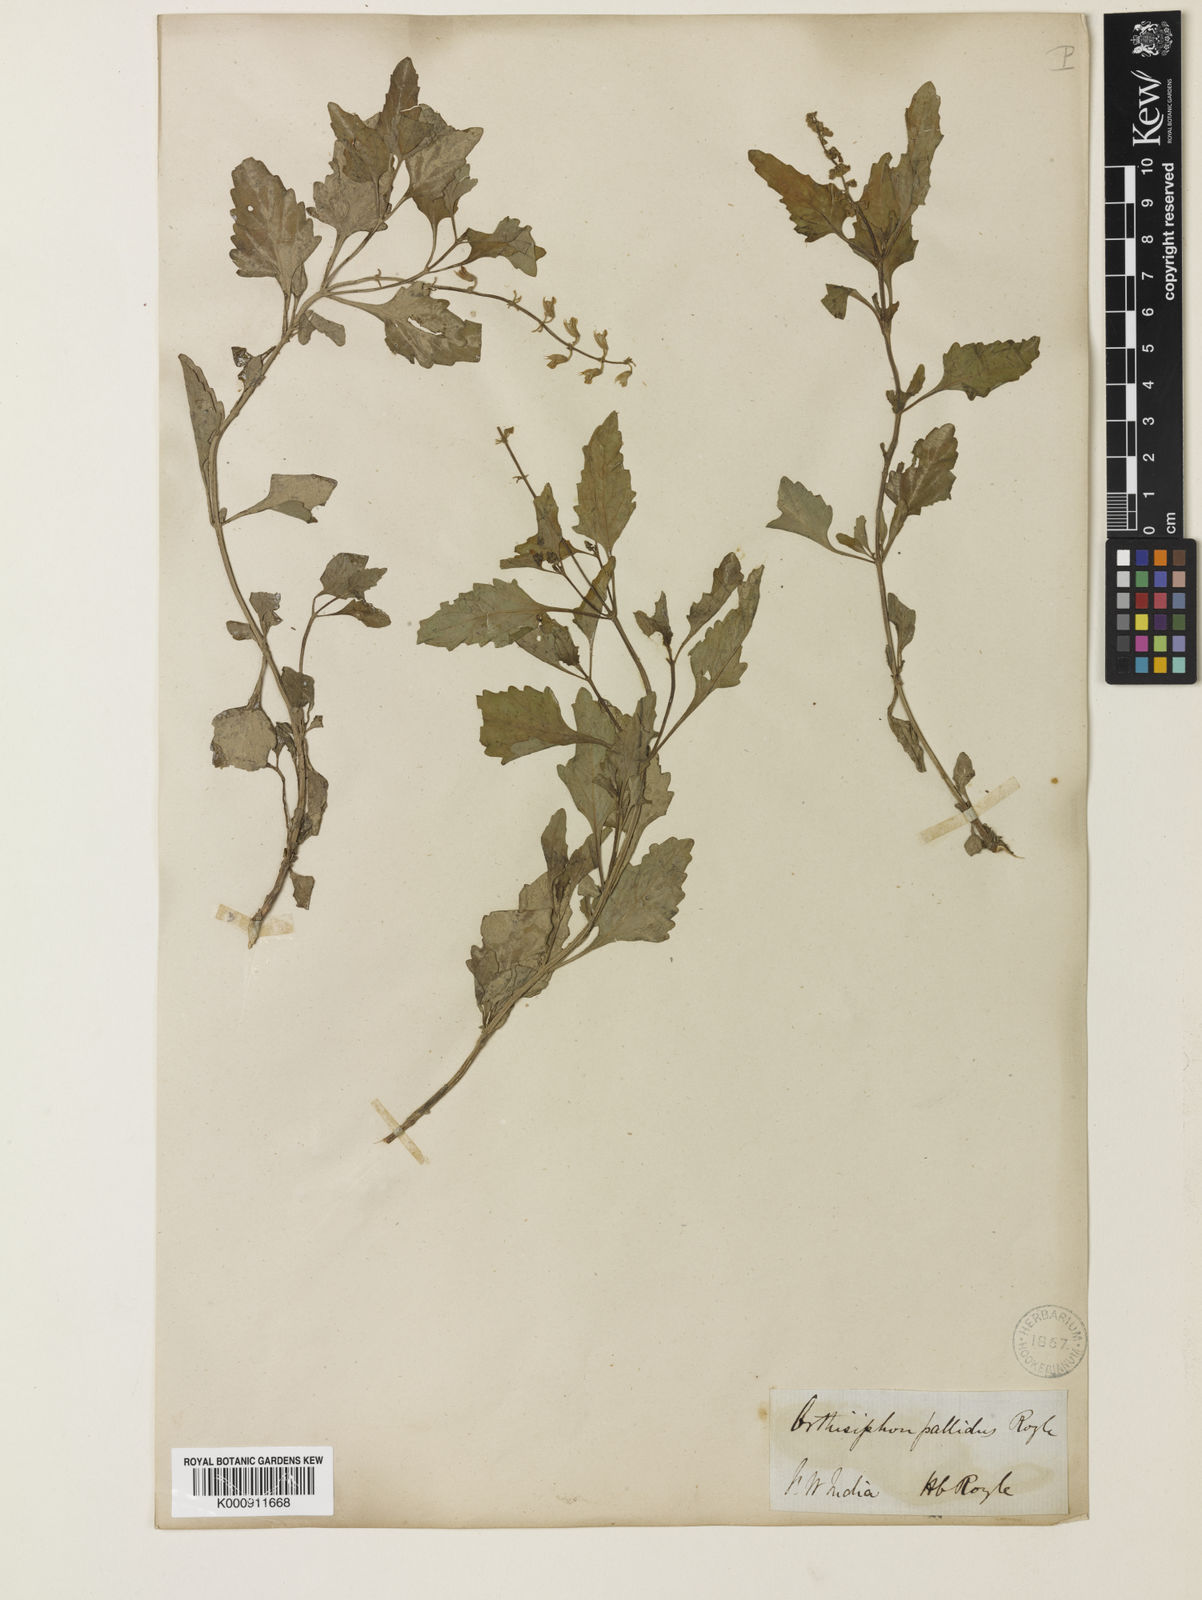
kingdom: Plantae
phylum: Tracheophyta
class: Magnoliopsida
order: Lamiales
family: Lamiaceae
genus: Orthosiphon
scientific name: Orthosiphon pallidus
